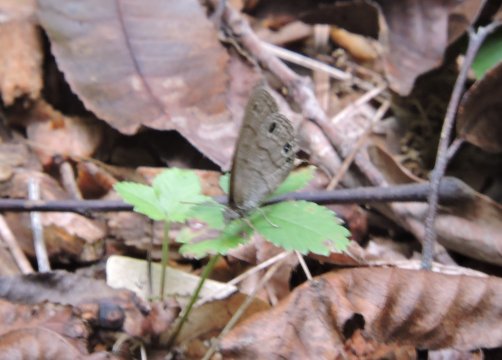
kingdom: Animalia
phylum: Arthropoda
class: Insecta
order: Lepidoptera
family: Nymphalidae
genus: Hermeuptychia
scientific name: Hermeuptychia hermes
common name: Carolina Satyr
